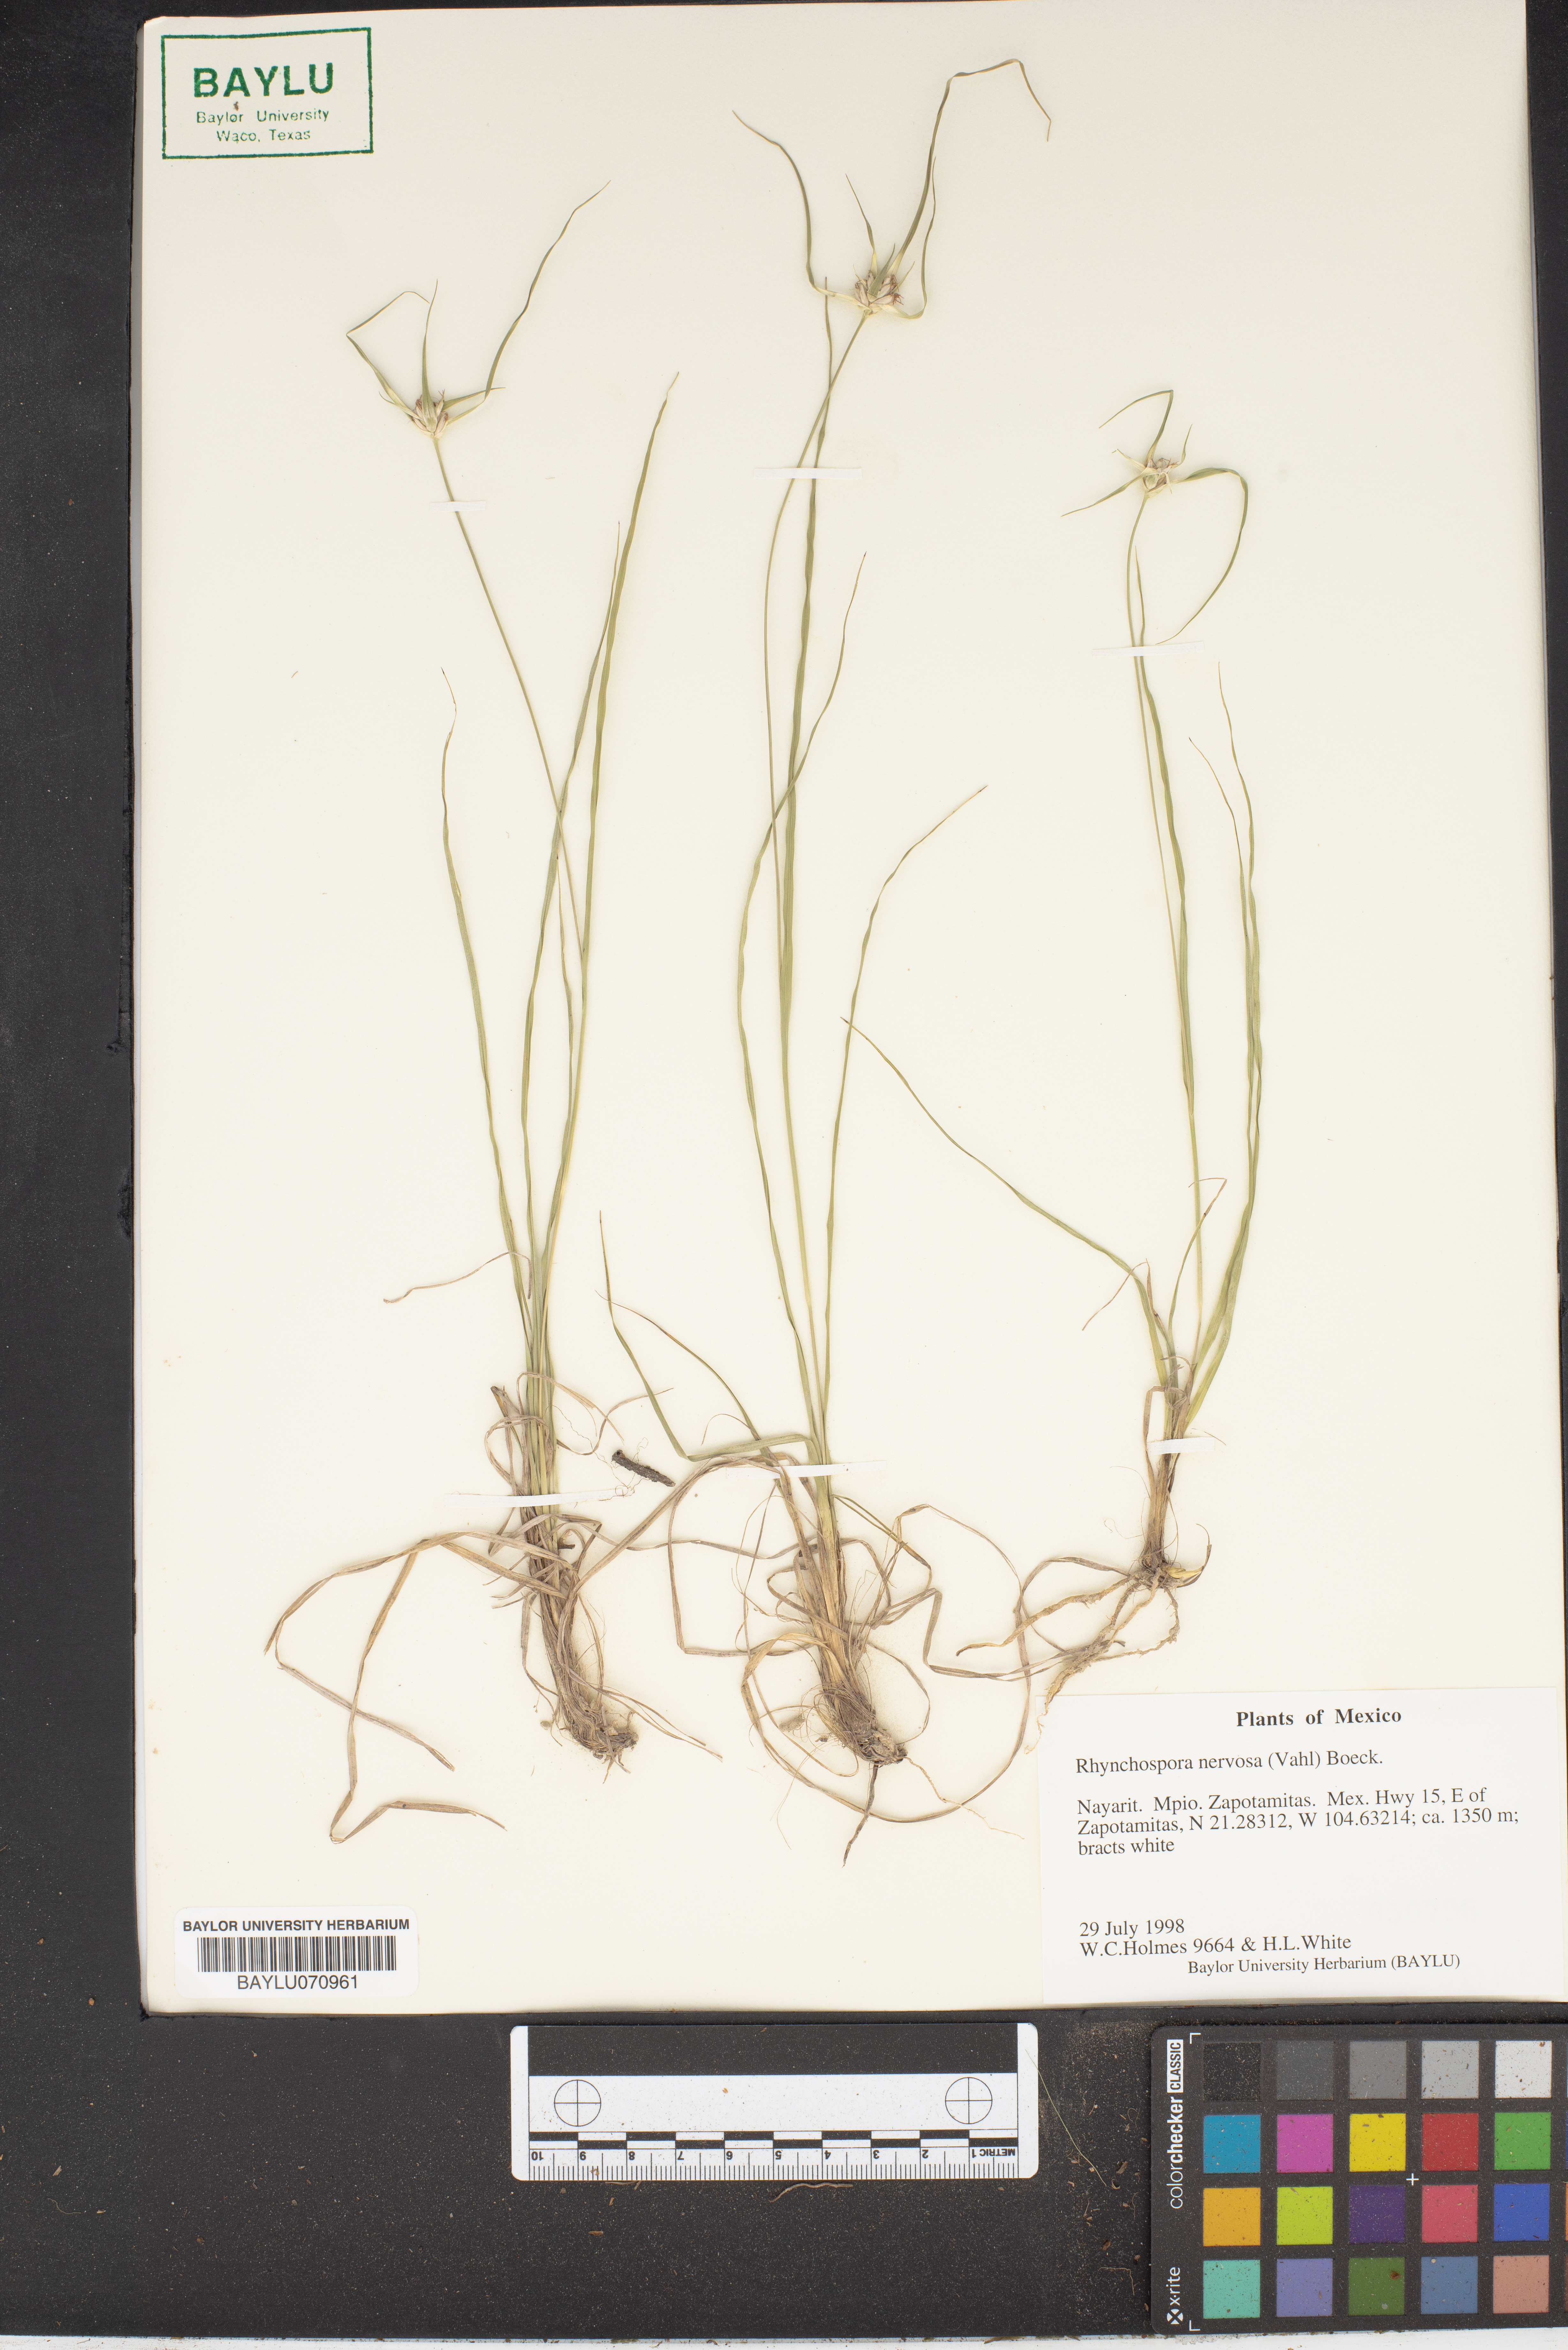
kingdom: Plantae
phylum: Tracheophyta
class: Liliopsida
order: Poales
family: Cyperaceae
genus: Rhynchospora
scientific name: Rhynchospora nervosa
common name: Star sedge
